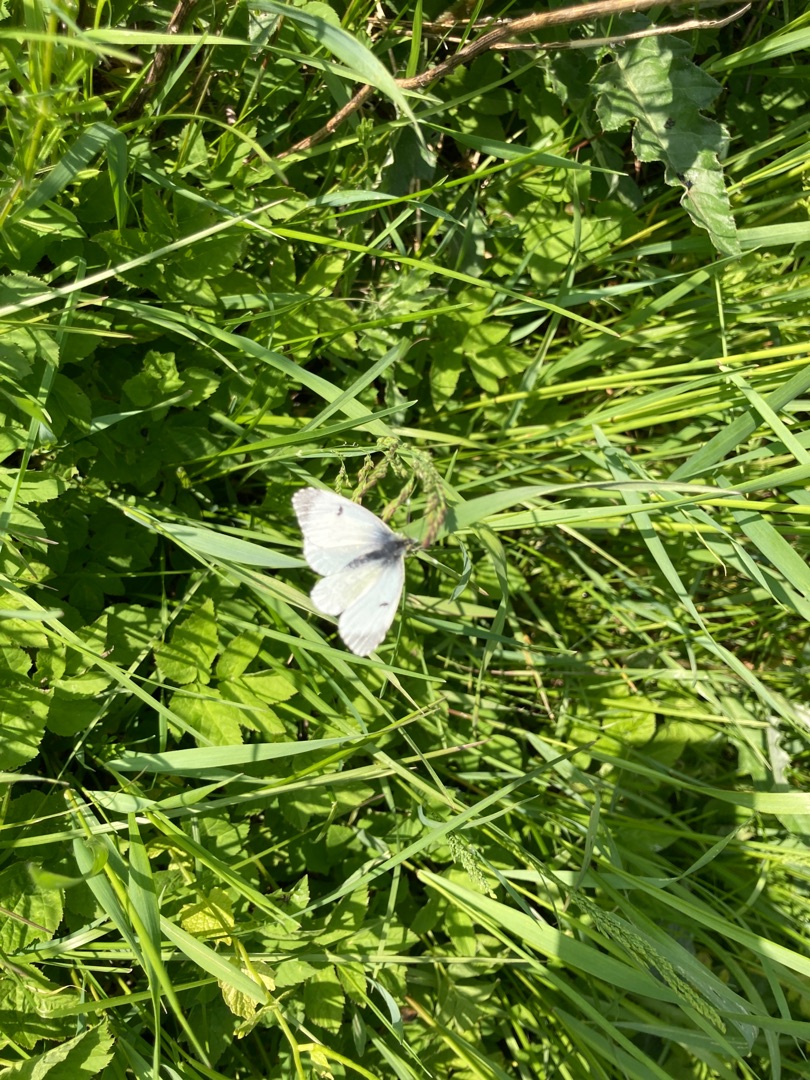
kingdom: Animalia
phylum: Arthropoda
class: Insecta
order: Lepidoptera
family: Pieridae
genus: Anthocharis
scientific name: Anthocharis cardamines
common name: Aurora
